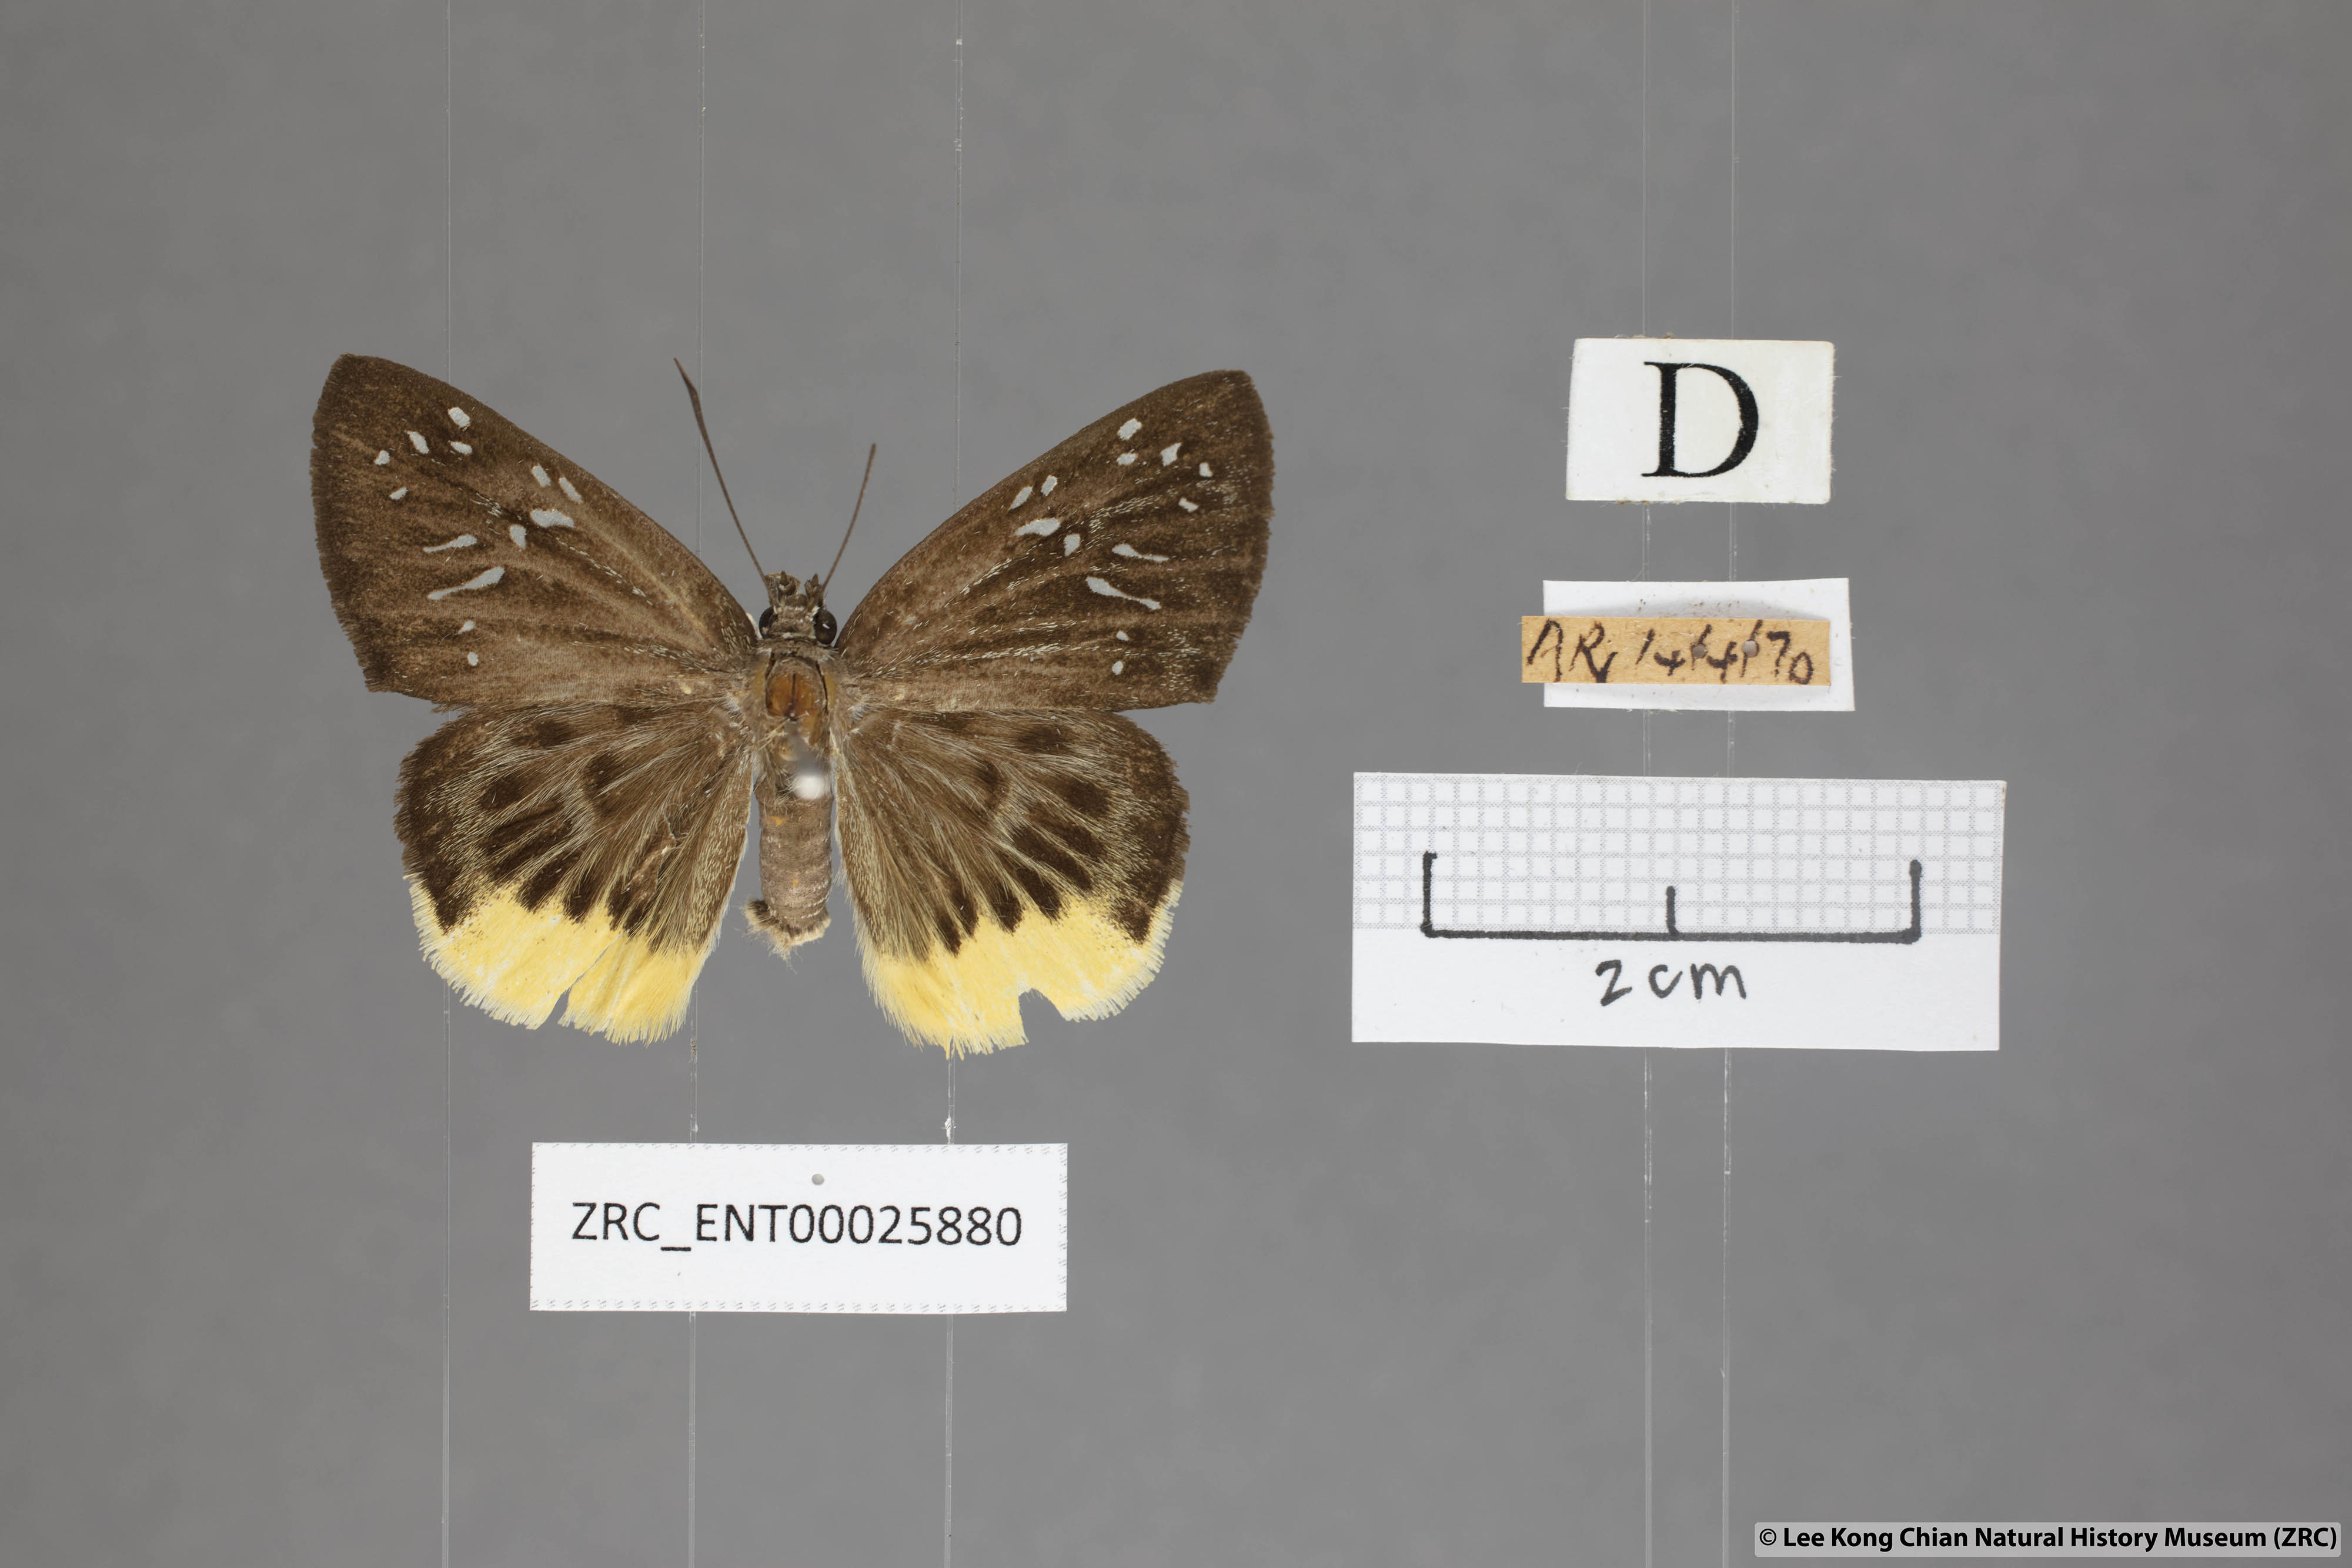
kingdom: Animalia
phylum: Arthropoda
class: Insecta
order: Lepidoptera
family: Hesperiidae
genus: Mooreana
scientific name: Mooreana trichoneura
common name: Yellow flat
